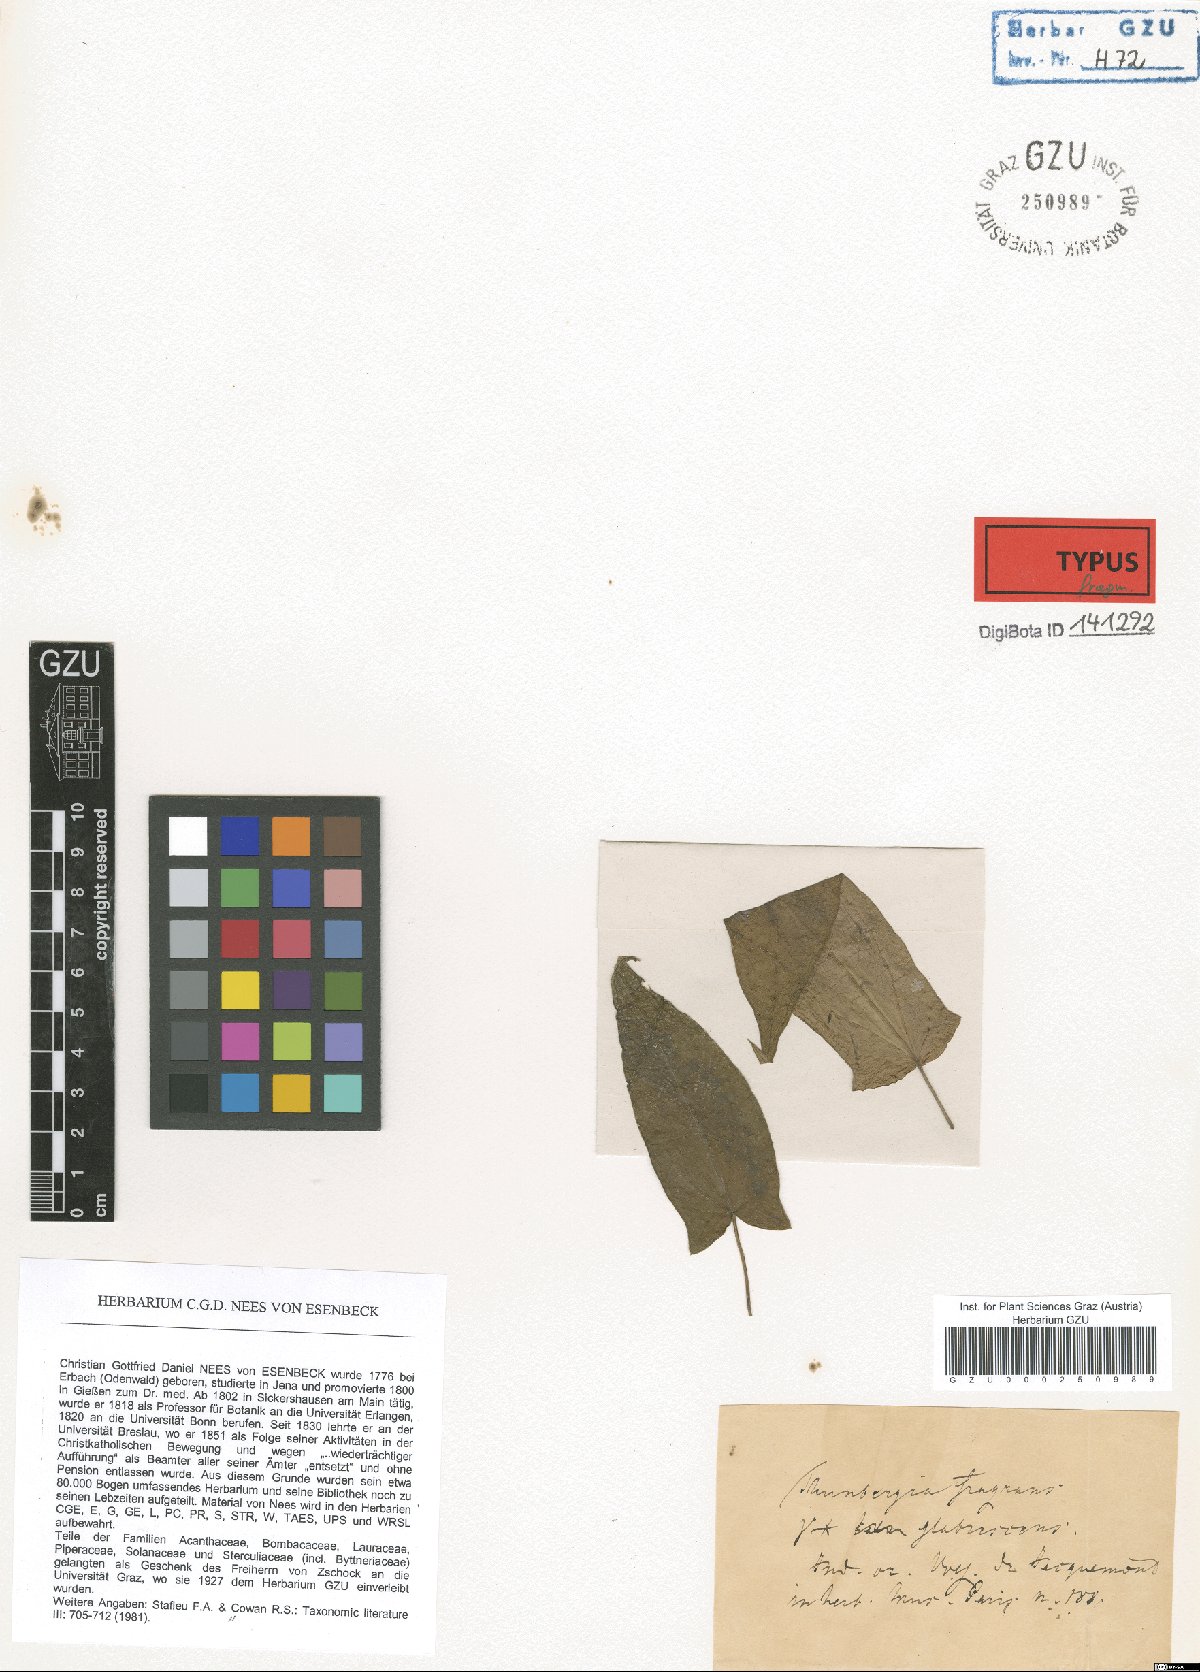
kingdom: Plantae
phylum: Tracheophyta
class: Magnoliopsida
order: Lamiales
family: Acanthaceae
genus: Thunbergia
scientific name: Thunbergia fragrans
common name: Whitelady
